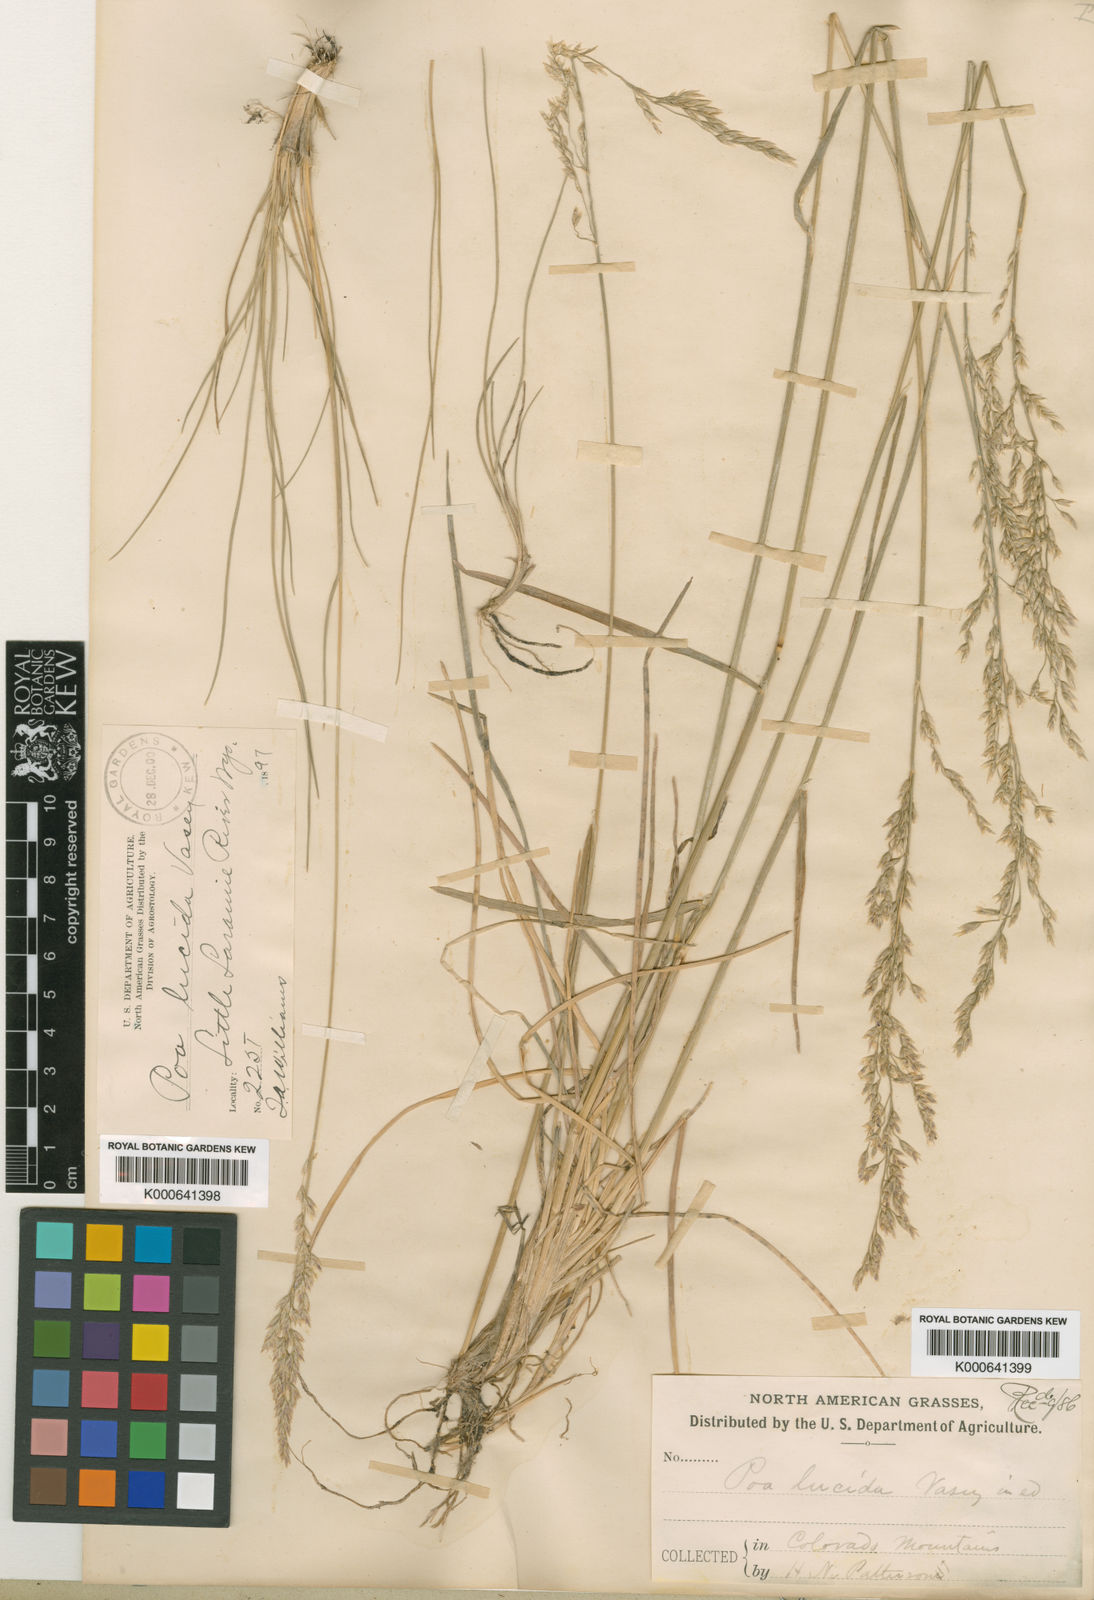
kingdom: Plantae
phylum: Tracheophyta
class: Liliopsida
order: Poales
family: Poaceae
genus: Poa
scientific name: Poa secunda
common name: Sandberg bluegrass
